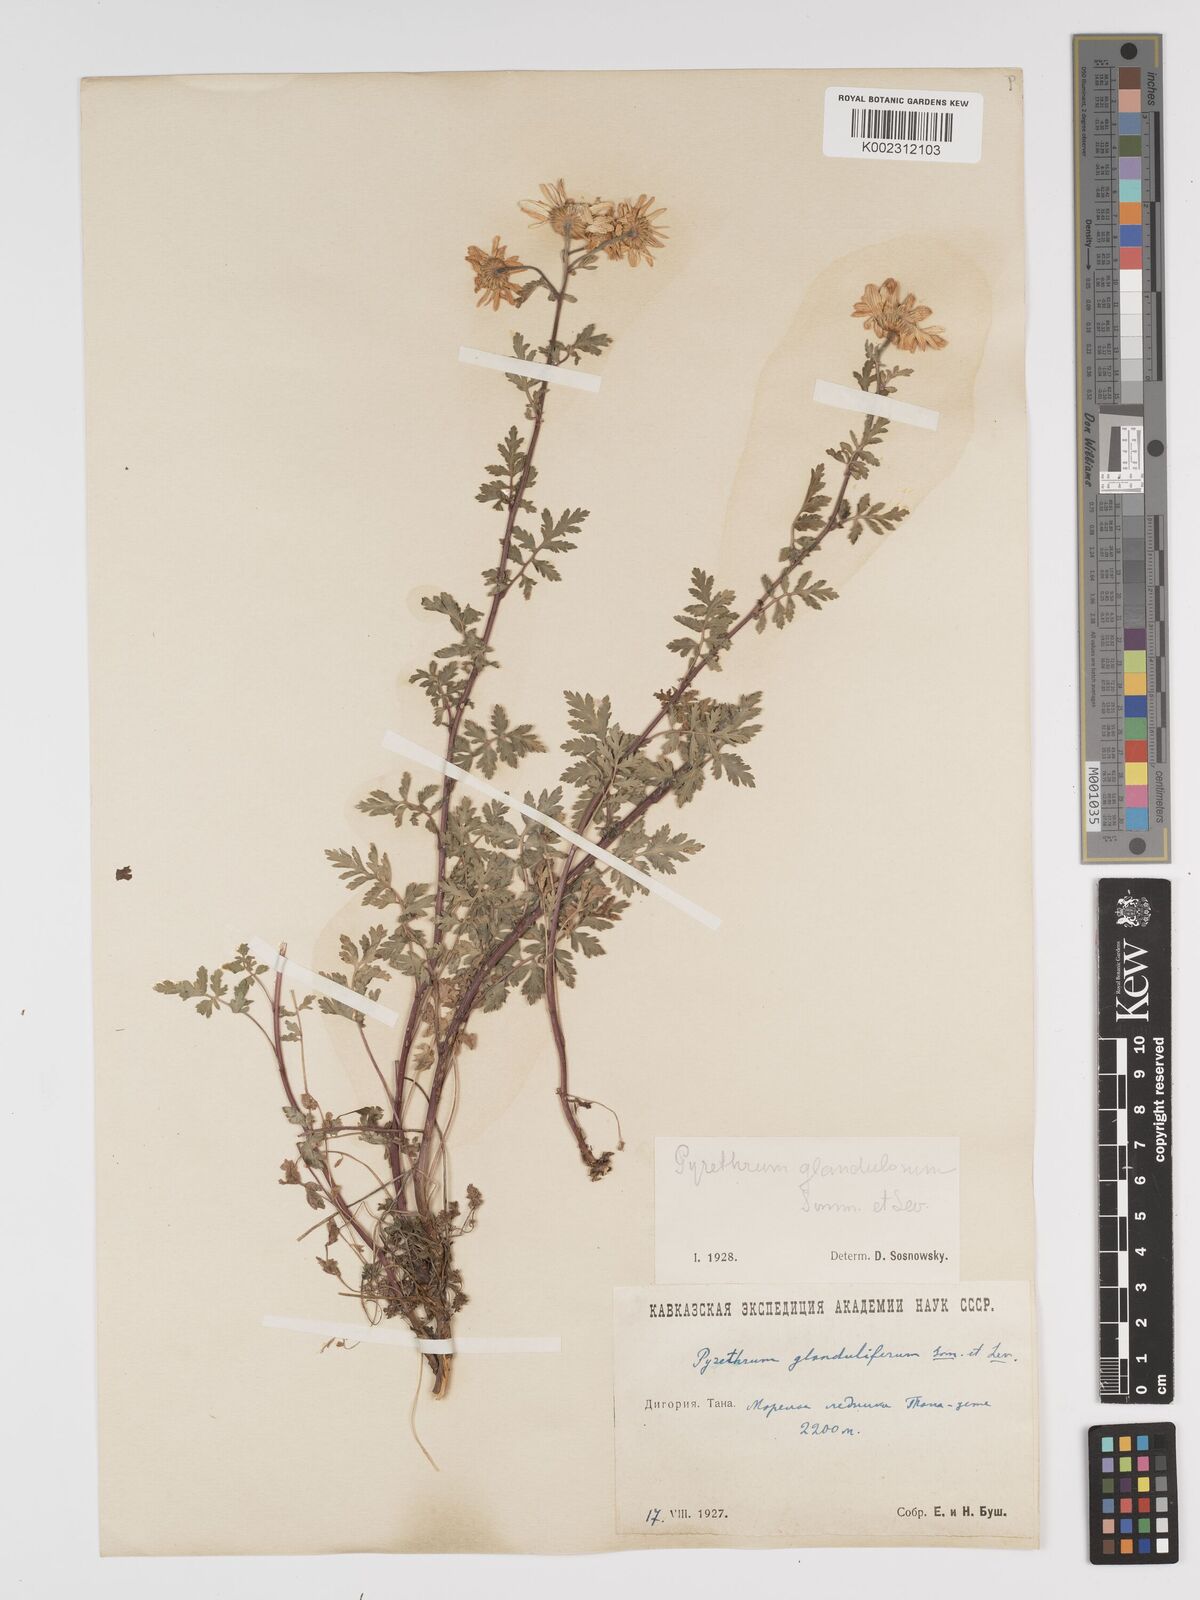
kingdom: Plantae
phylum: Tracheophyta
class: Magnoliopsida
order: Asterales
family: Asteraceae
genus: Tanacetum
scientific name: Tanacetum parthenium
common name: Feverfew
